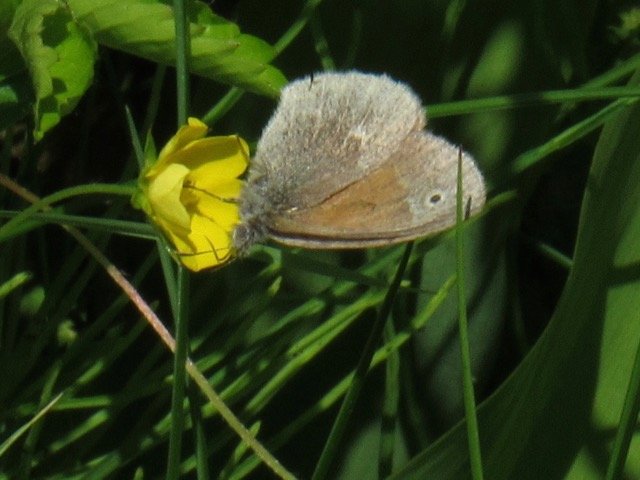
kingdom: Animalia
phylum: Arthropoda
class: Insecta
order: Lepidoptera
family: Nymphalidae
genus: Coenonympha
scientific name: Coenonympha tullia
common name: Large Heath
